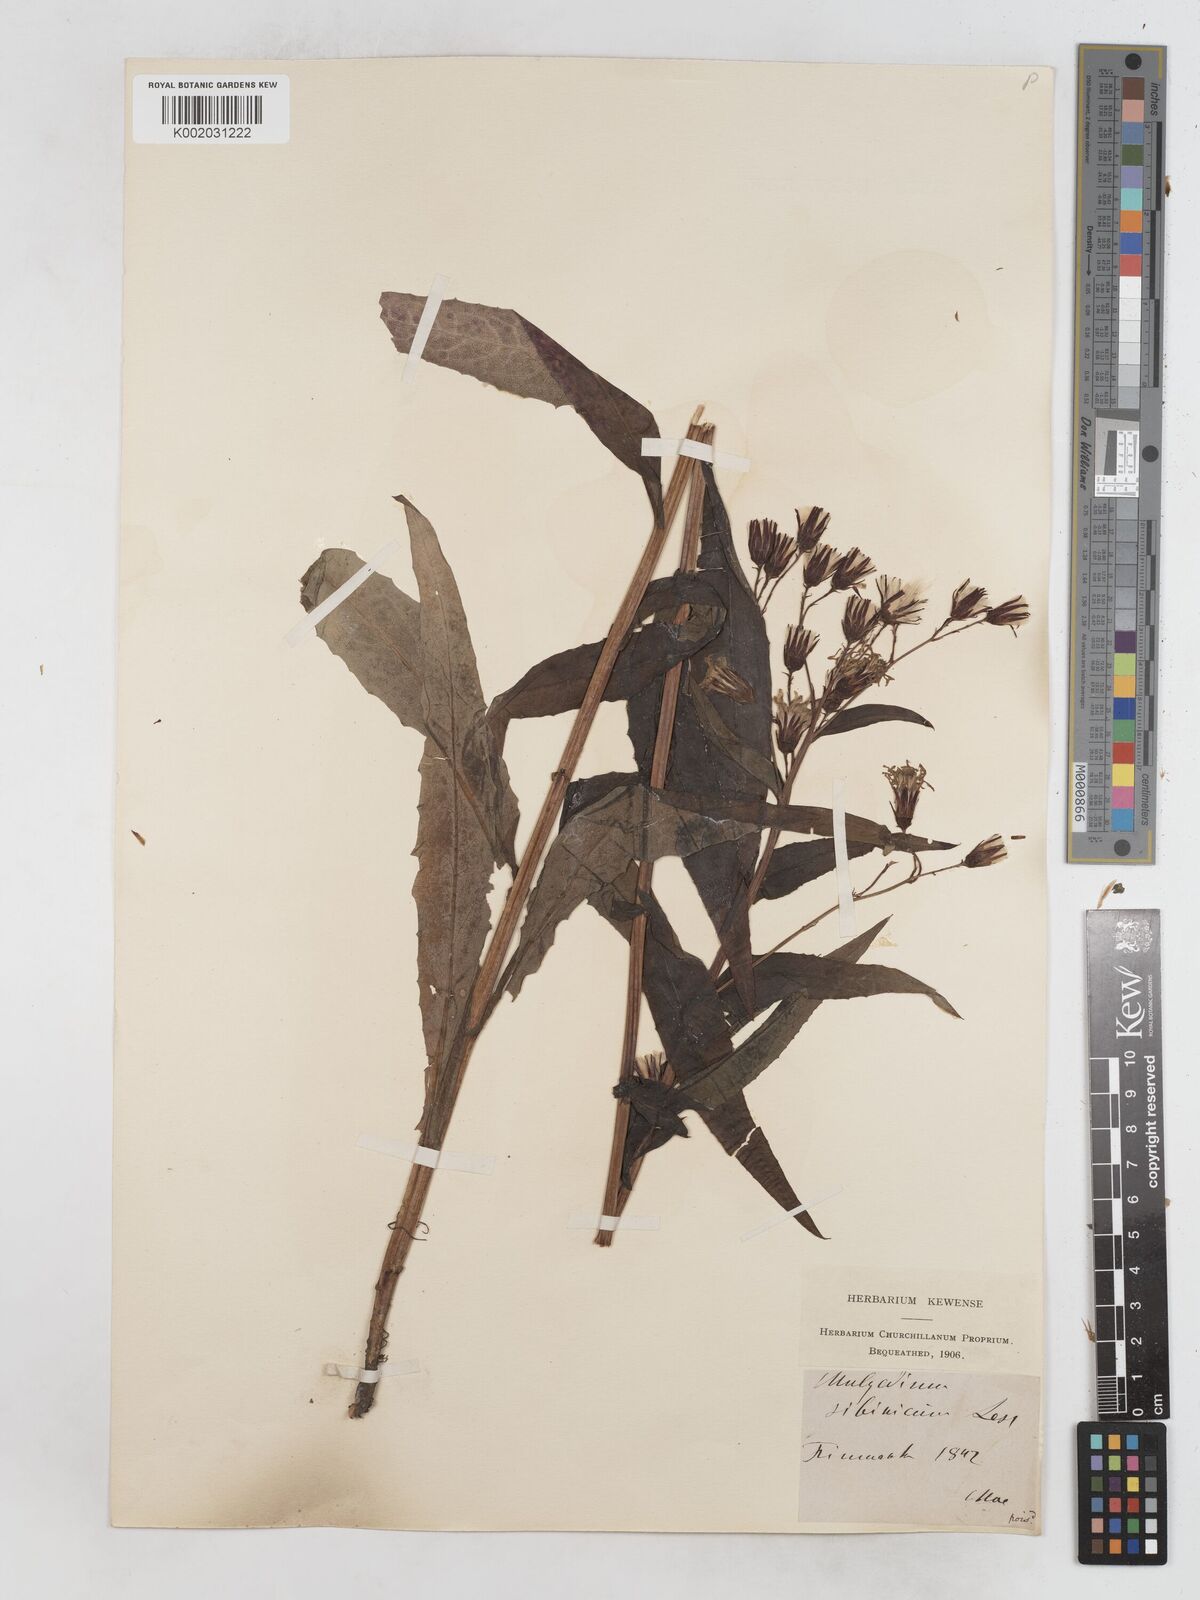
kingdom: Plantae
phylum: Tracheophyta
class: Magnoliopsida
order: Asterales
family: Asteraceae
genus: Lactuca
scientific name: Lactuca sibirica
